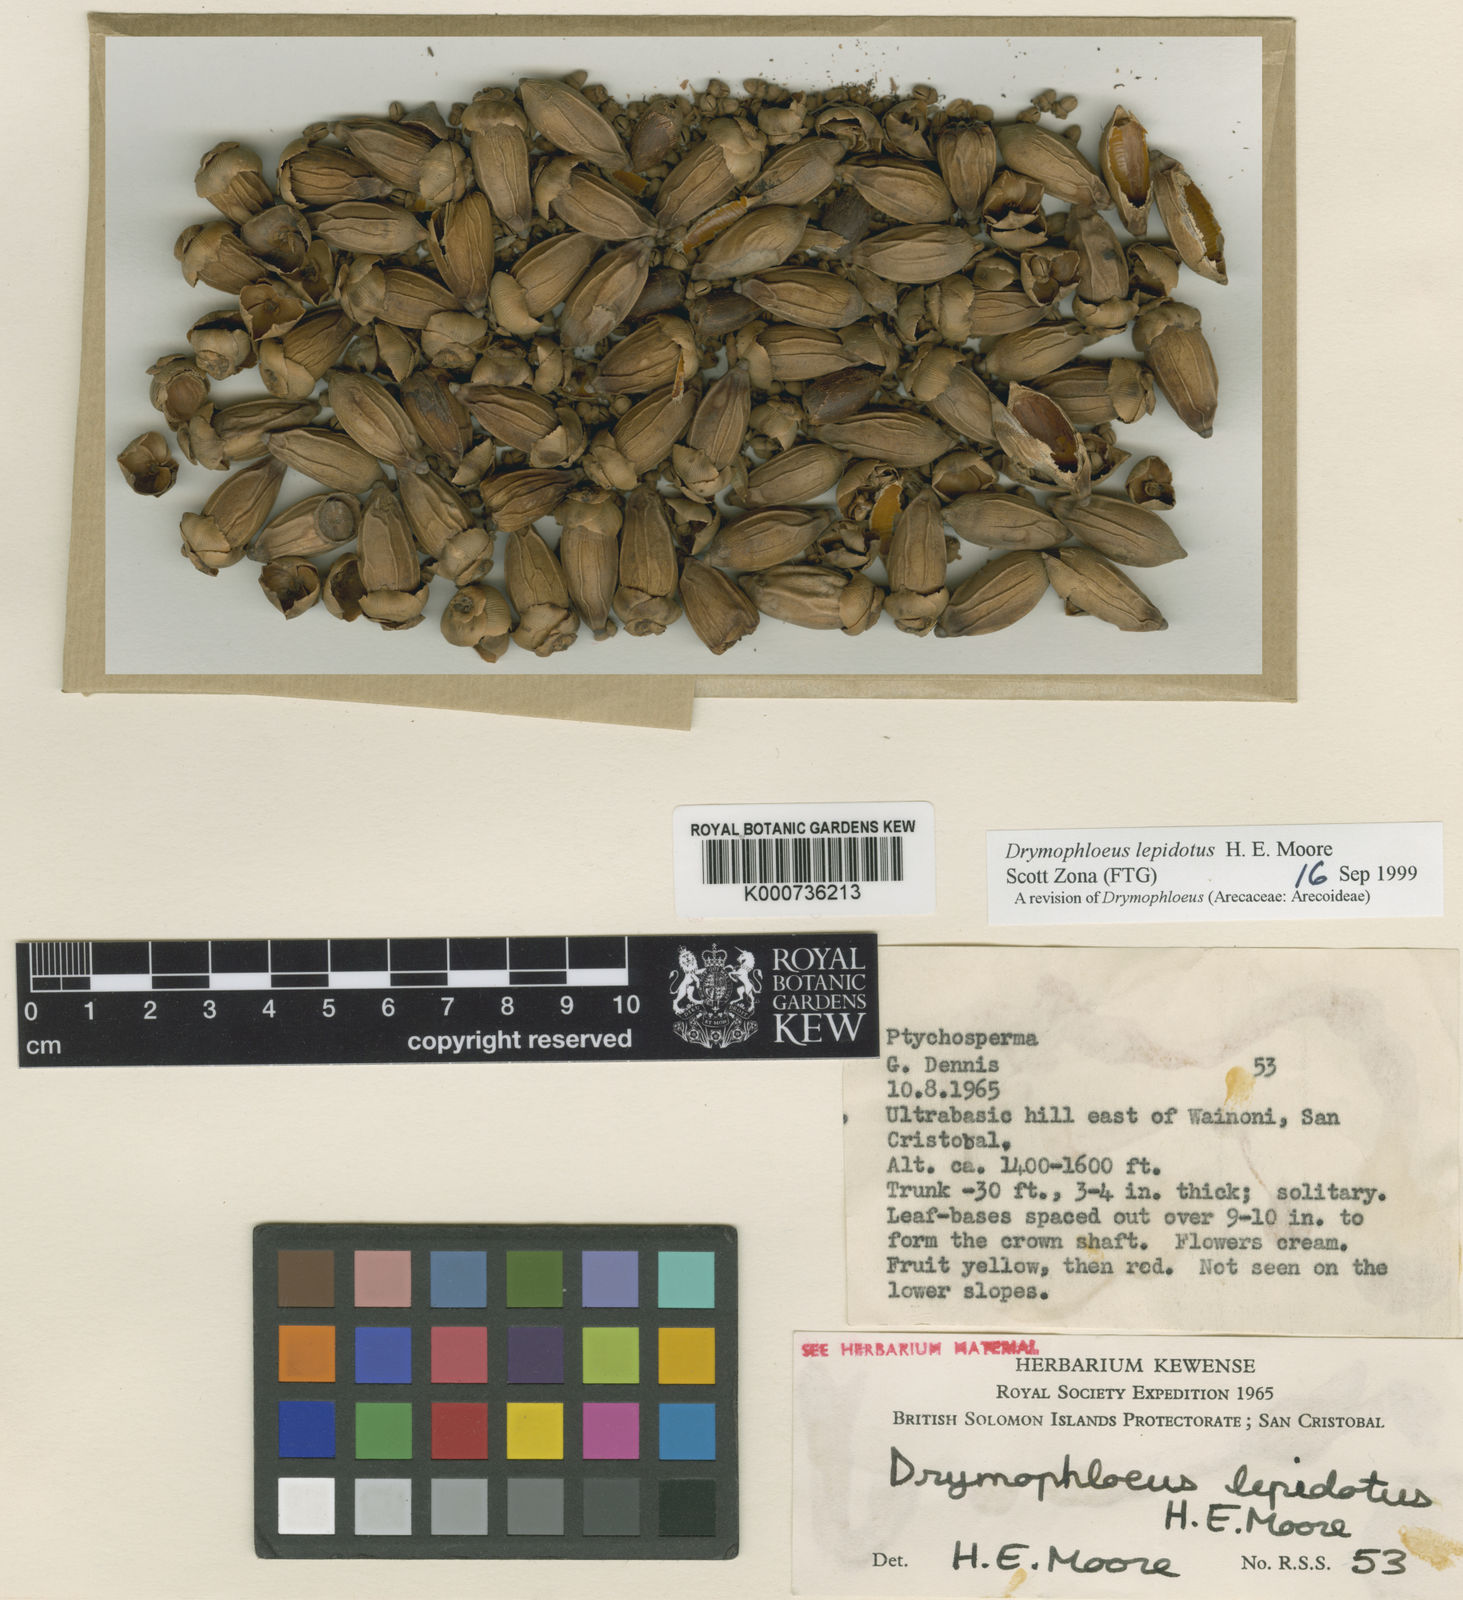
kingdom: Plantae
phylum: Tracheophyta
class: Liliopsida
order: Arecales
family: Arecaceae
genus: Veitchia
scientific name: Veitchia lepidota
